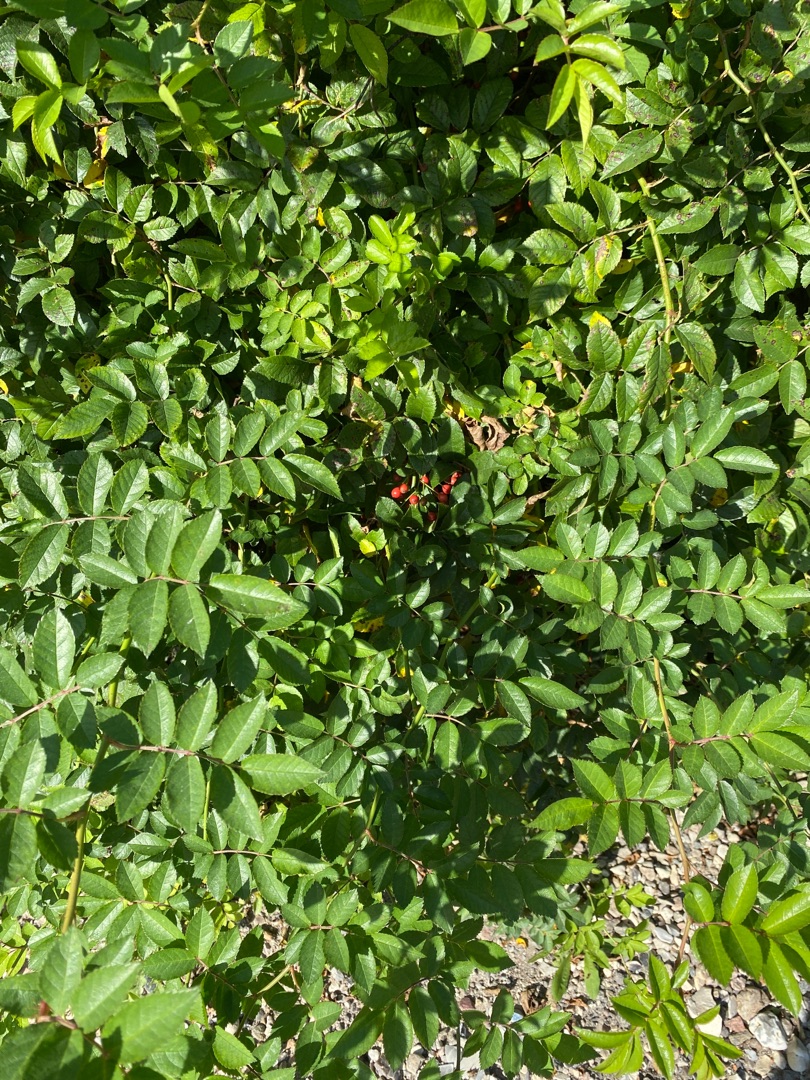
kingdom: Plantae
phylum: Tracheophyta
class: Magnoliopsida
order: Rosales
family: Rosaceae
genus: Rosa
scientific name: Rosa
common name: Roseslægten
